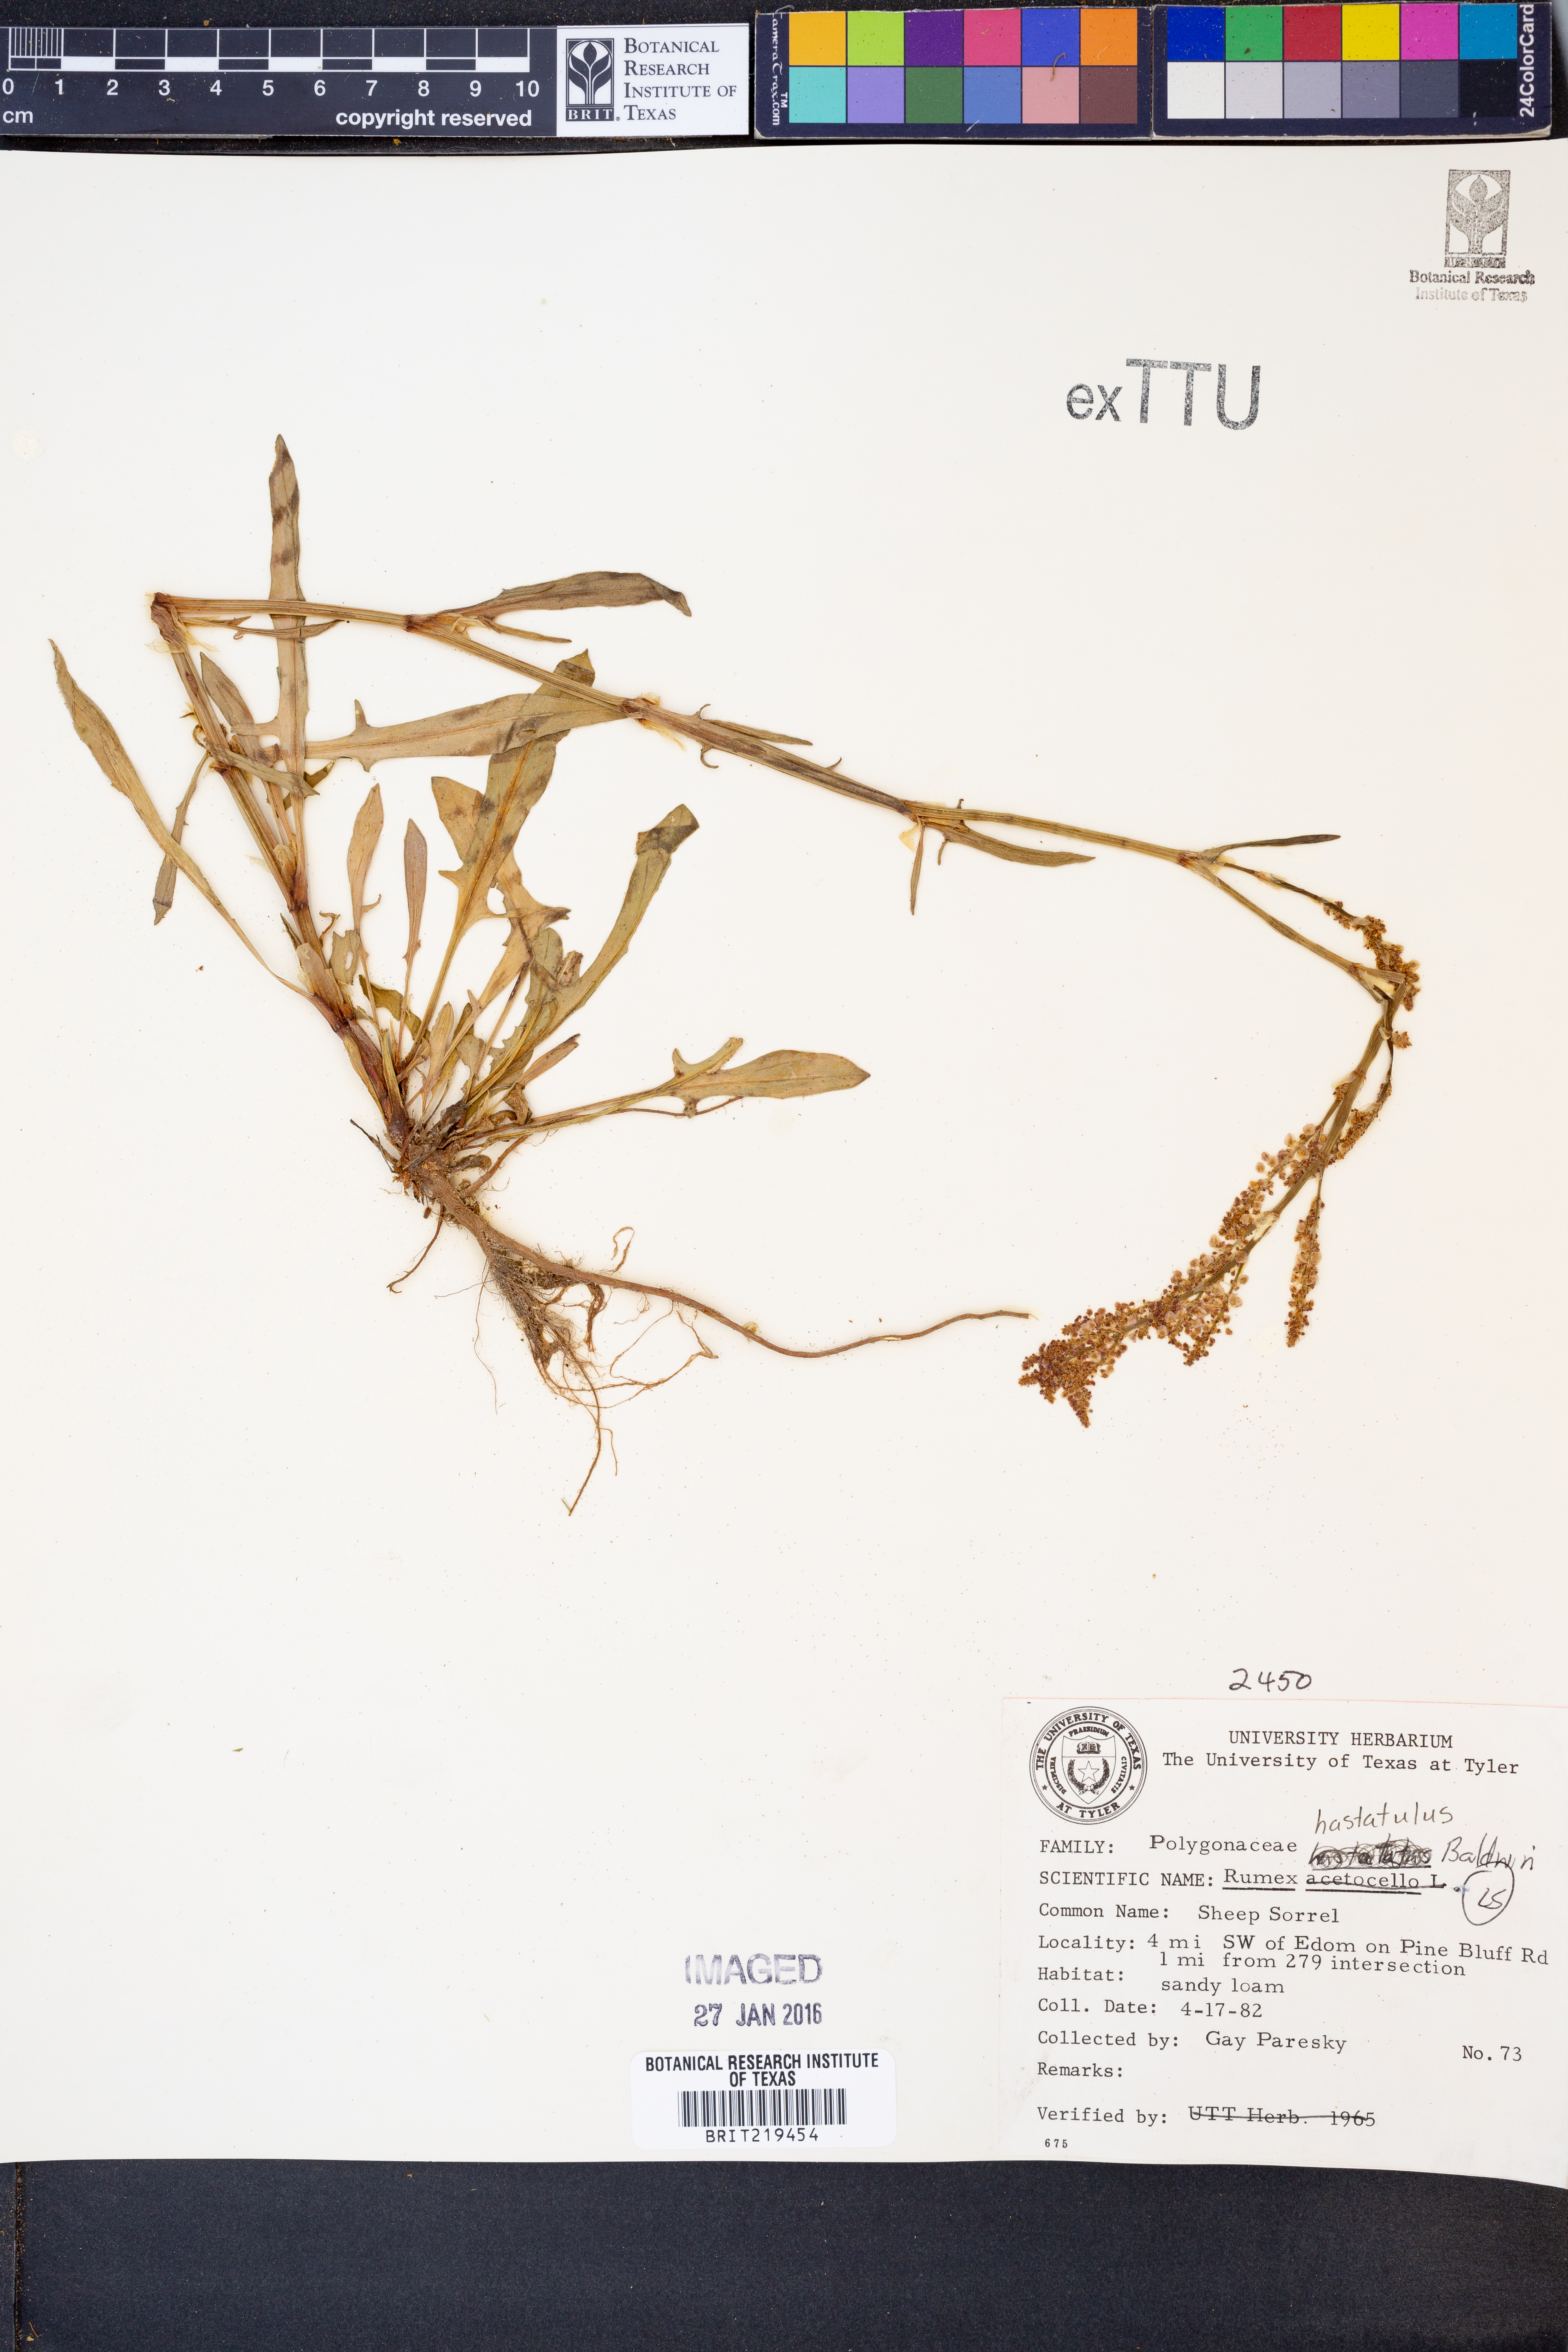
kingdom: Plantae
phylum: Tracheophyta
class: Magnoliopsida
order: Caryophyllales
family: Polygonaceae
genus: Rumex
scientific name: Rumex hastatulus
